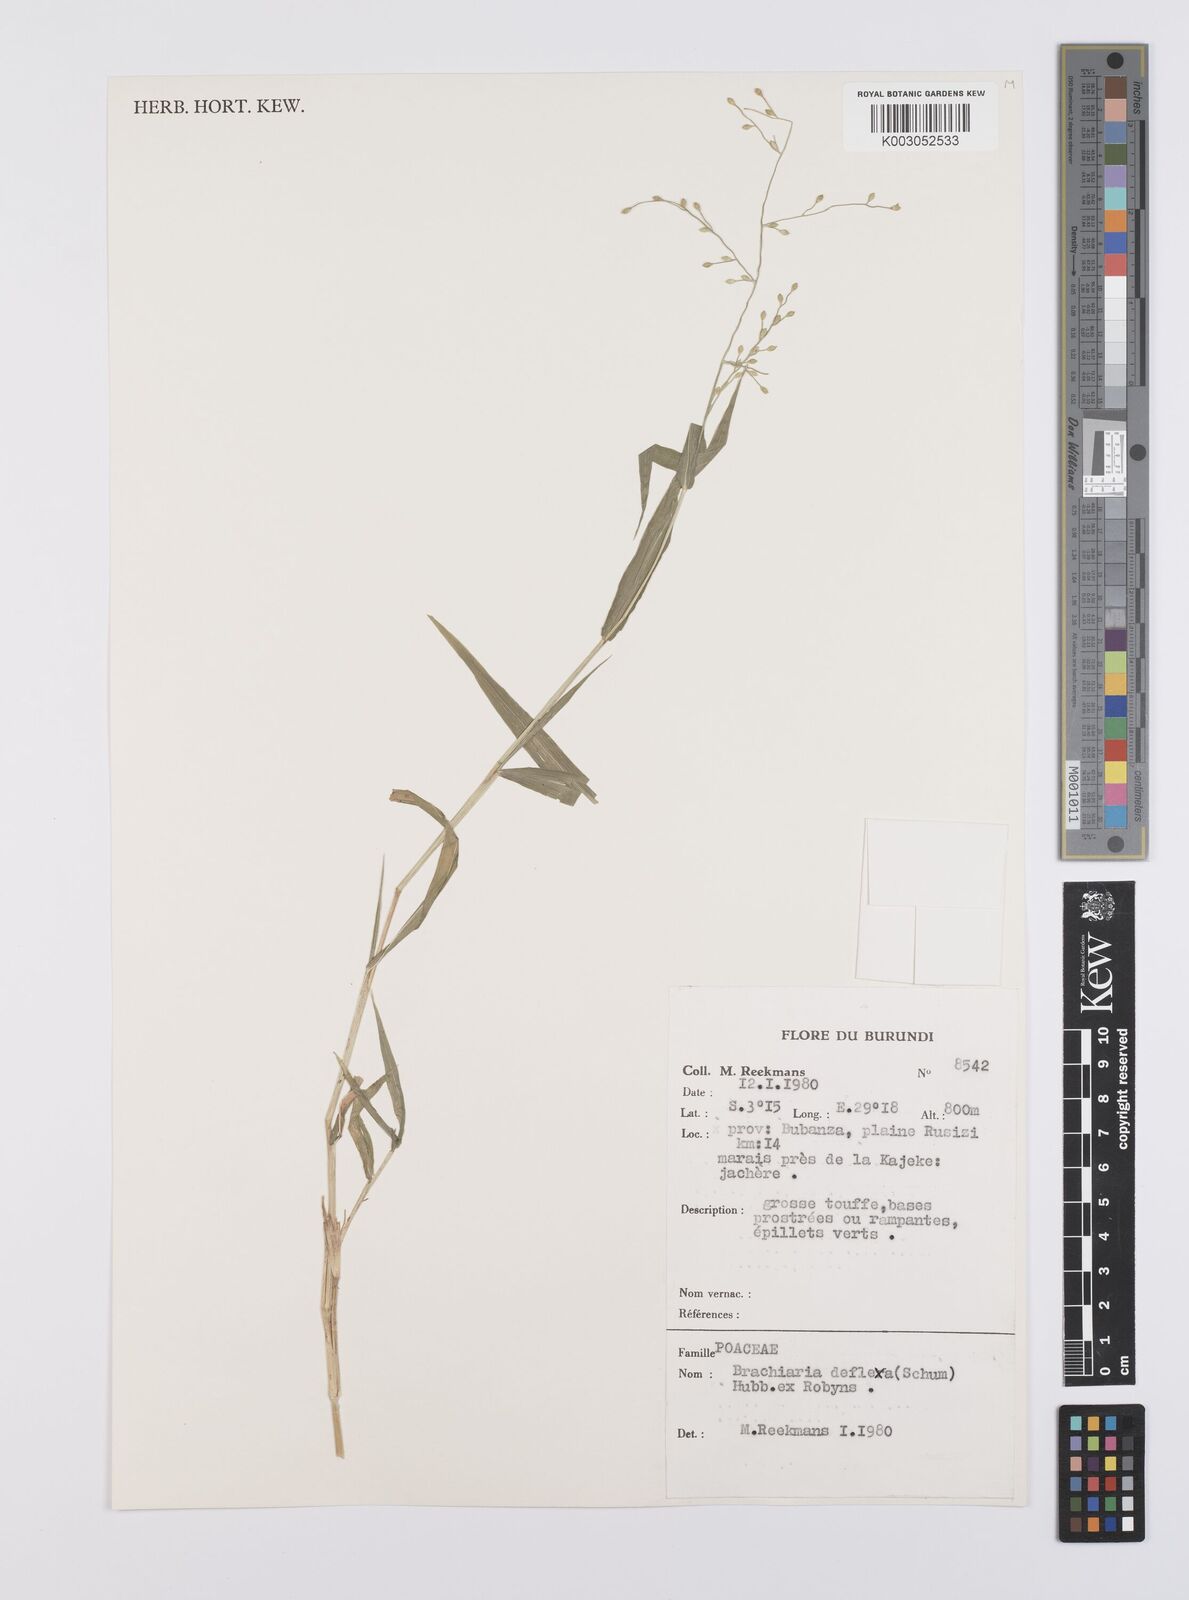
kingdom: Plantae
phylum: Tracheophyta
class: Liliopsida
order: Poales
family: Poaceae
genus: Urochloa
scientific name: Urochloa deflexa
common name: Guinea millet
